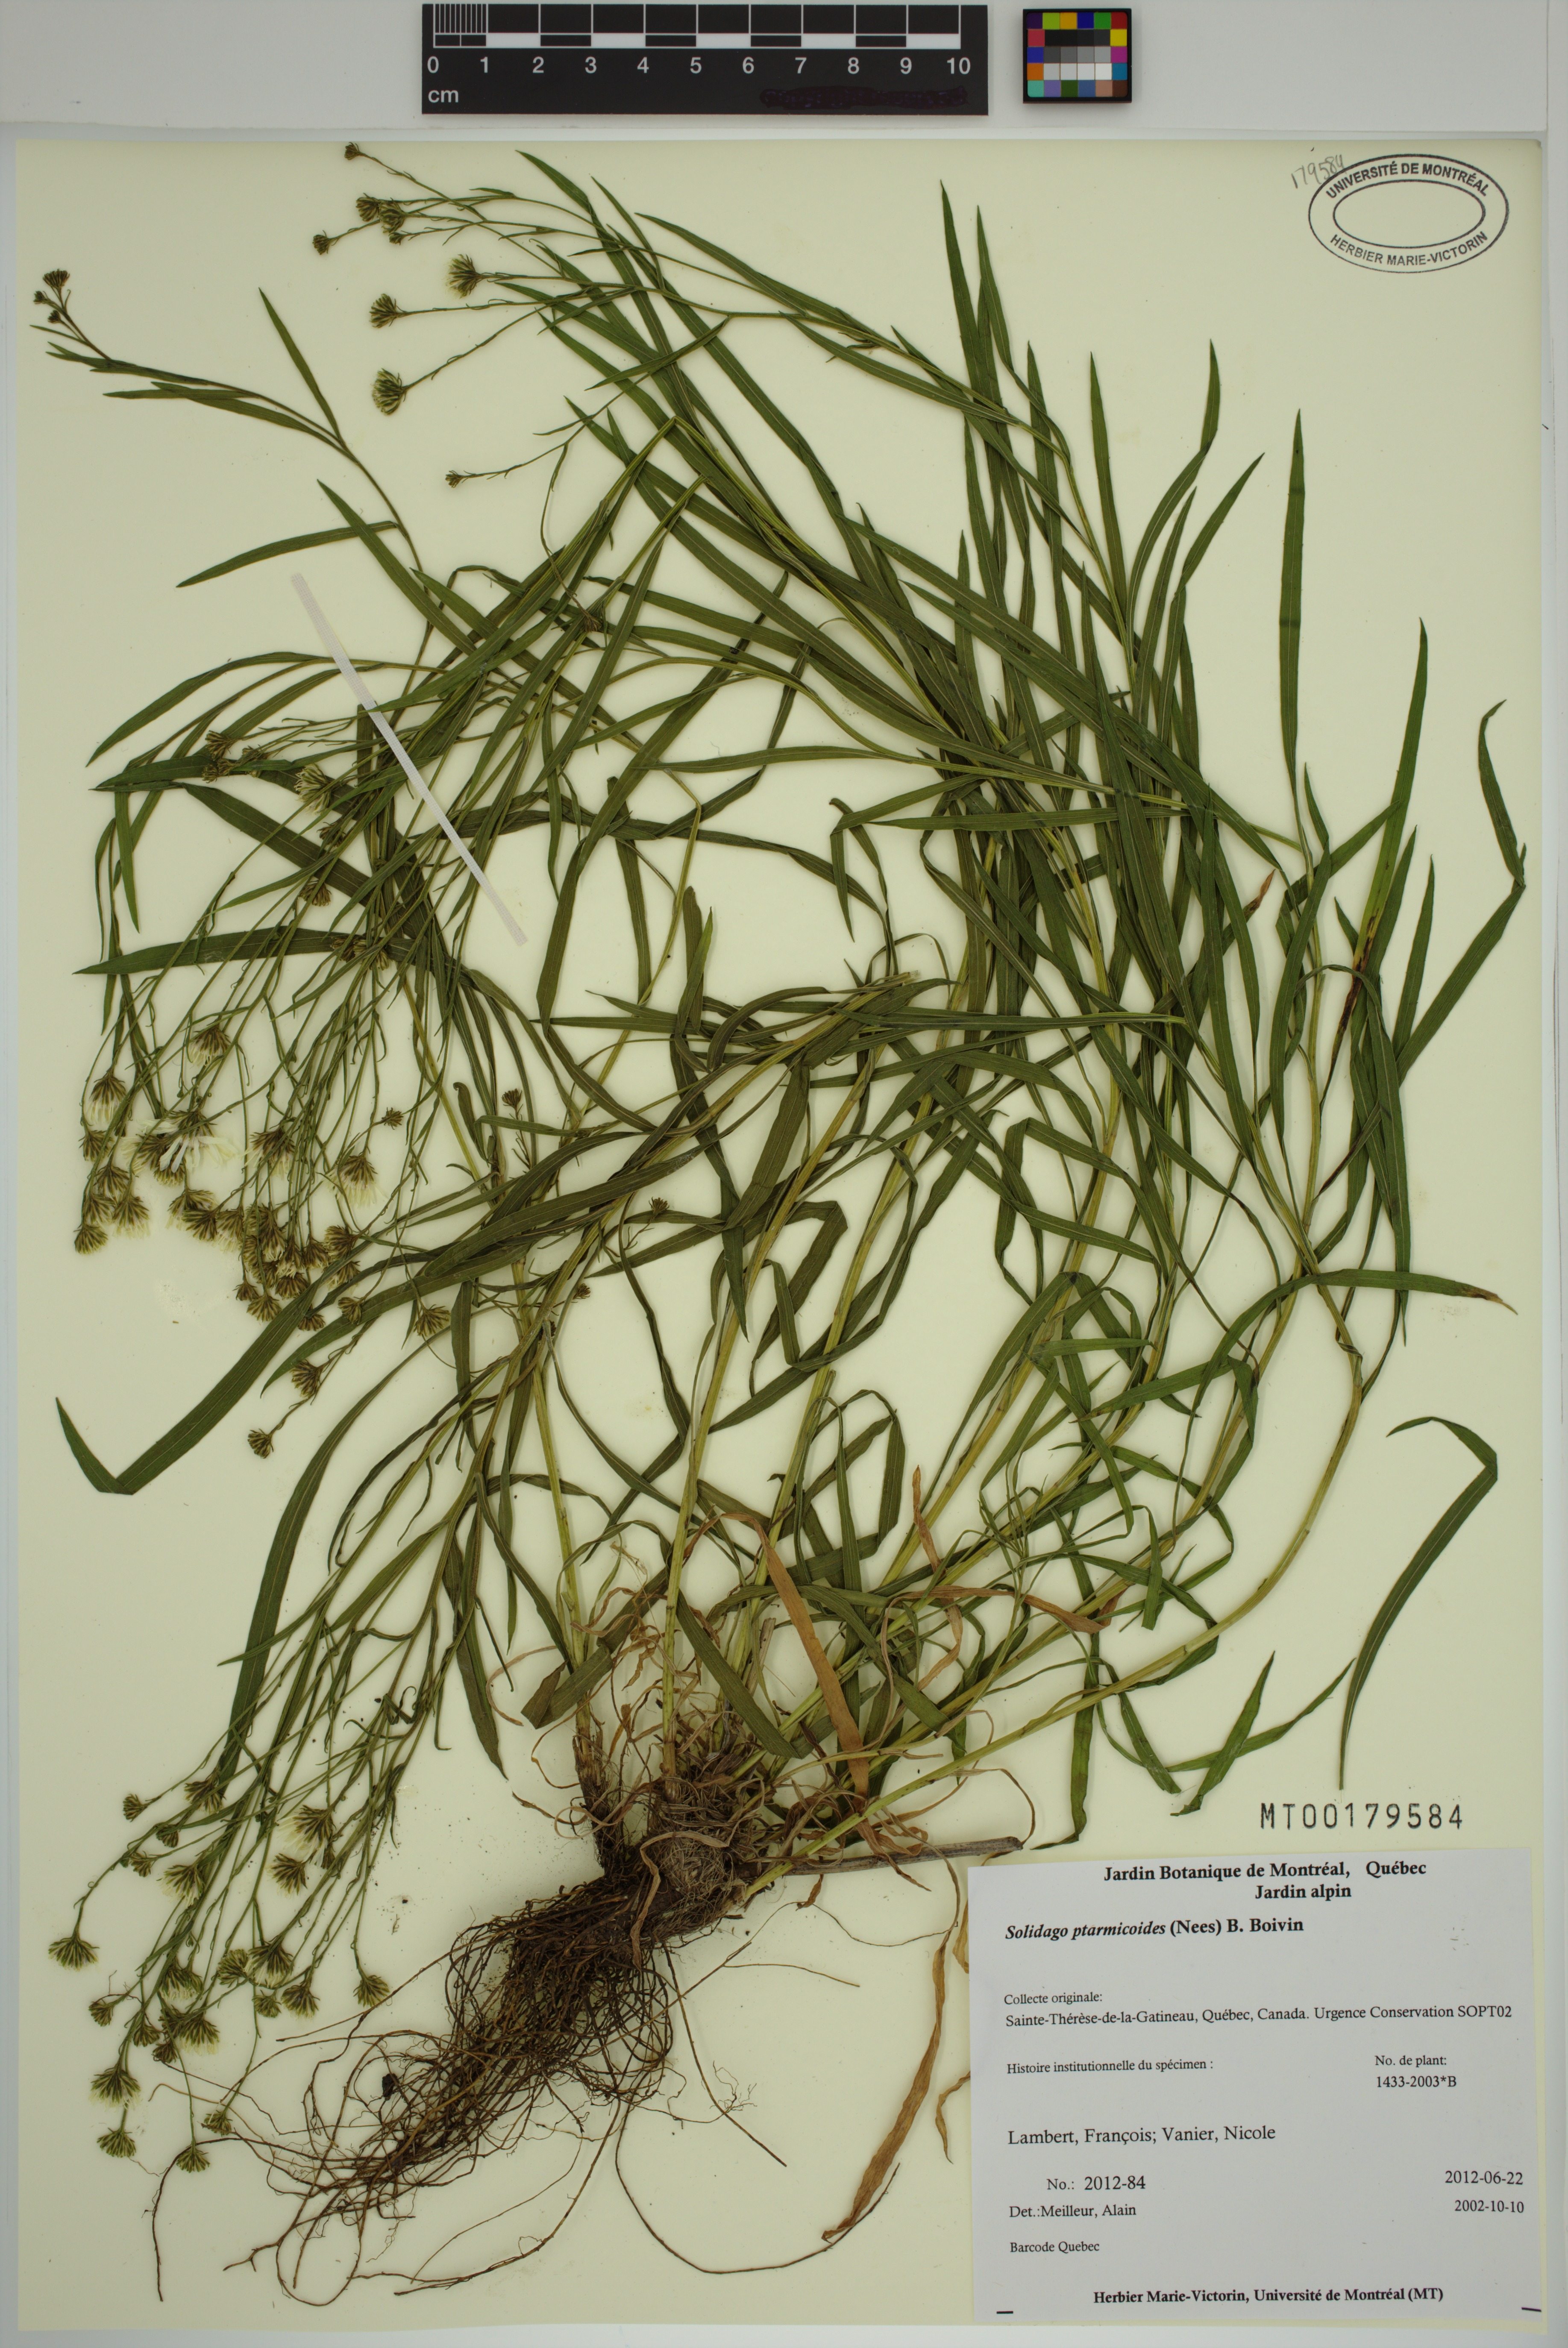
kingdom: Plantae
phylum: Tracheophyta
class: Magnoliopsida
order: Asterales
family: Asteraceae
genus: Solidago
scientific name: Solidago ptarmicoides
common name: White flat-top goldenrod
